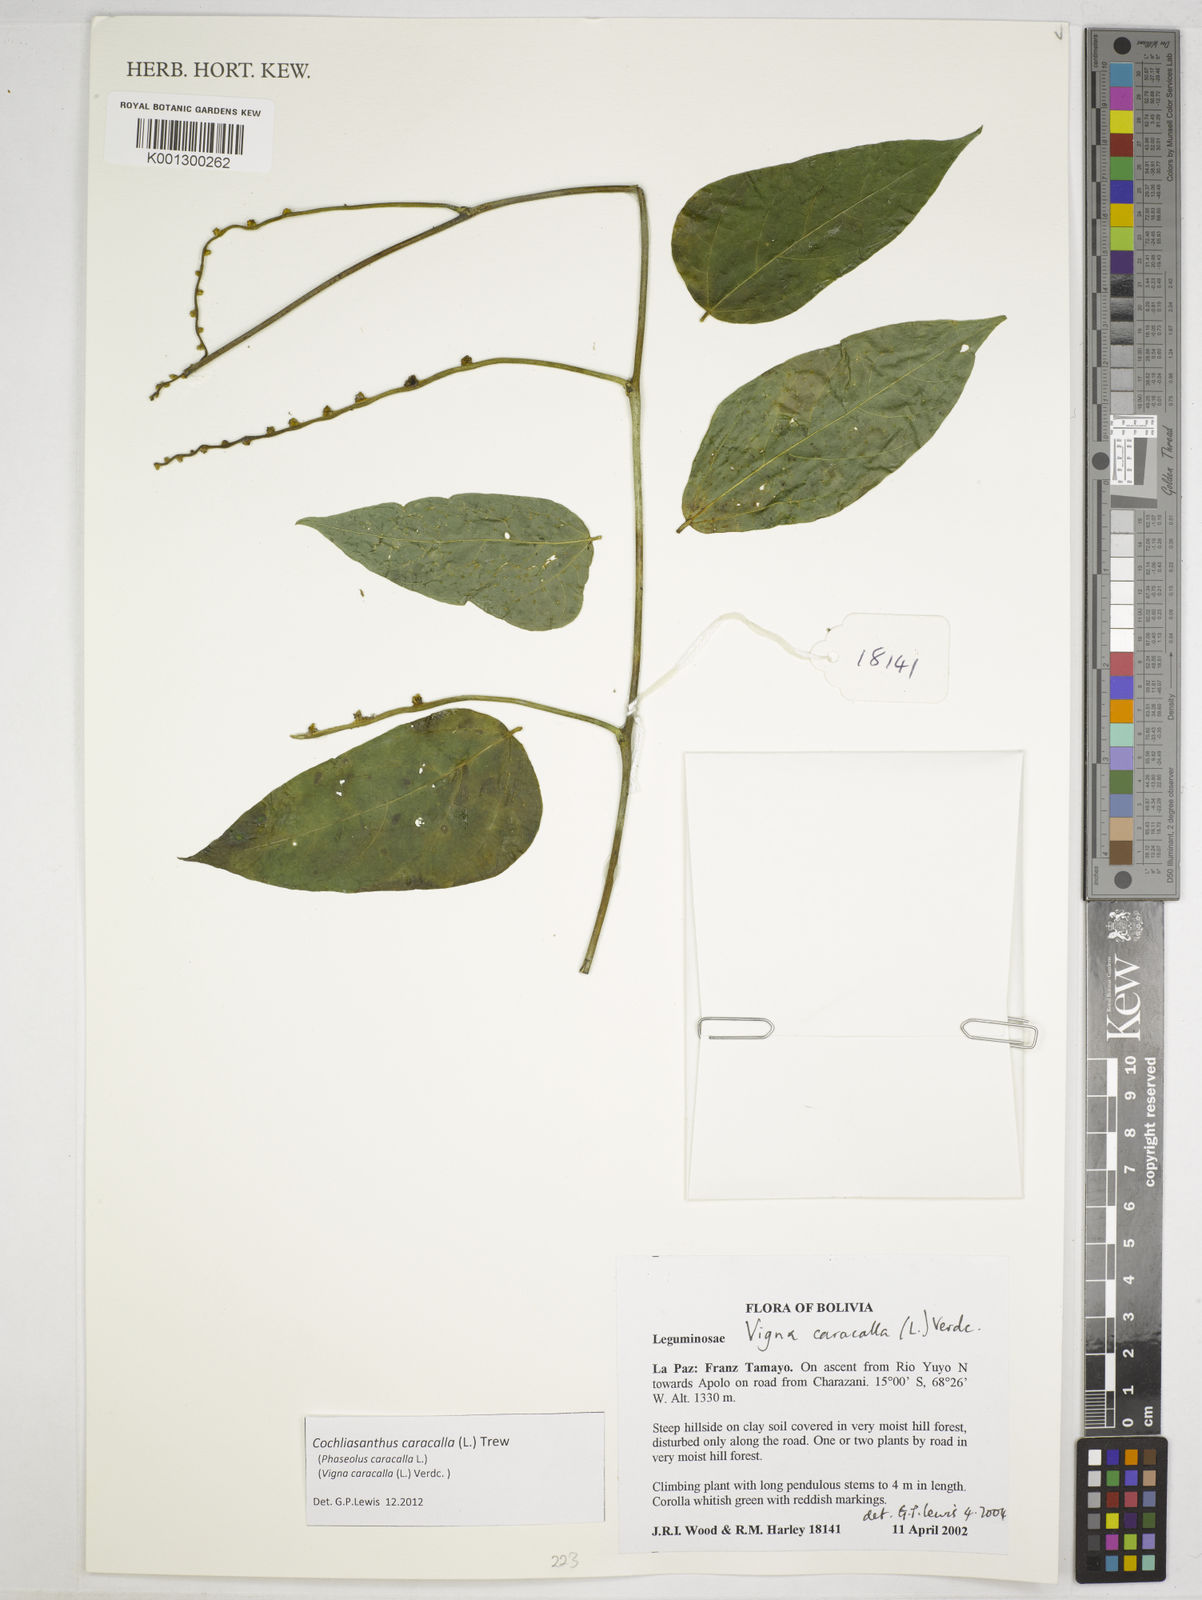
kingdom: Plantae
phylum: Tracheophyta
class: Magnoliopsida
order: Fabales
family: Fabaceae
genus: Cochliasanthus
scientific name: Cochliasanthus caracalla
